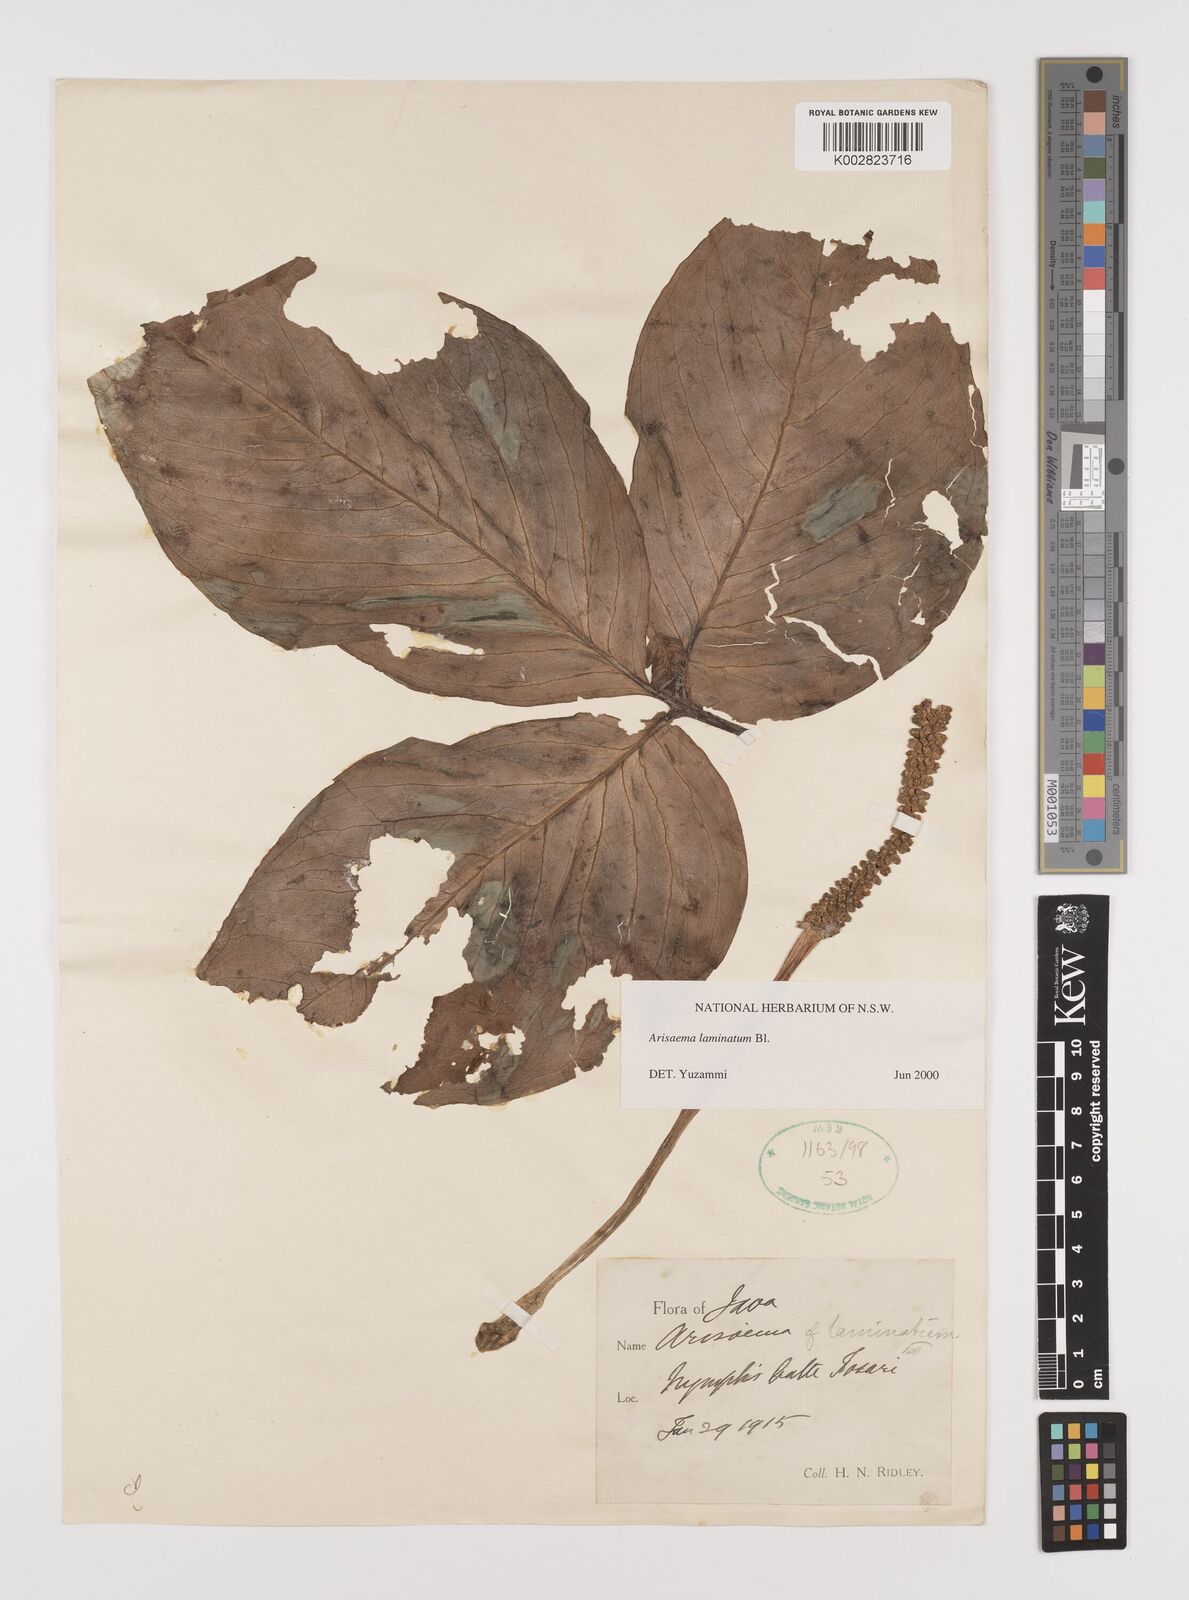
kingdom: Plantae
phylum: Tracheophyta
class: Liliopsida
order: Alismatales
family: Araceae
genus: Arisaema
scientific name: Arisaema laminatum
